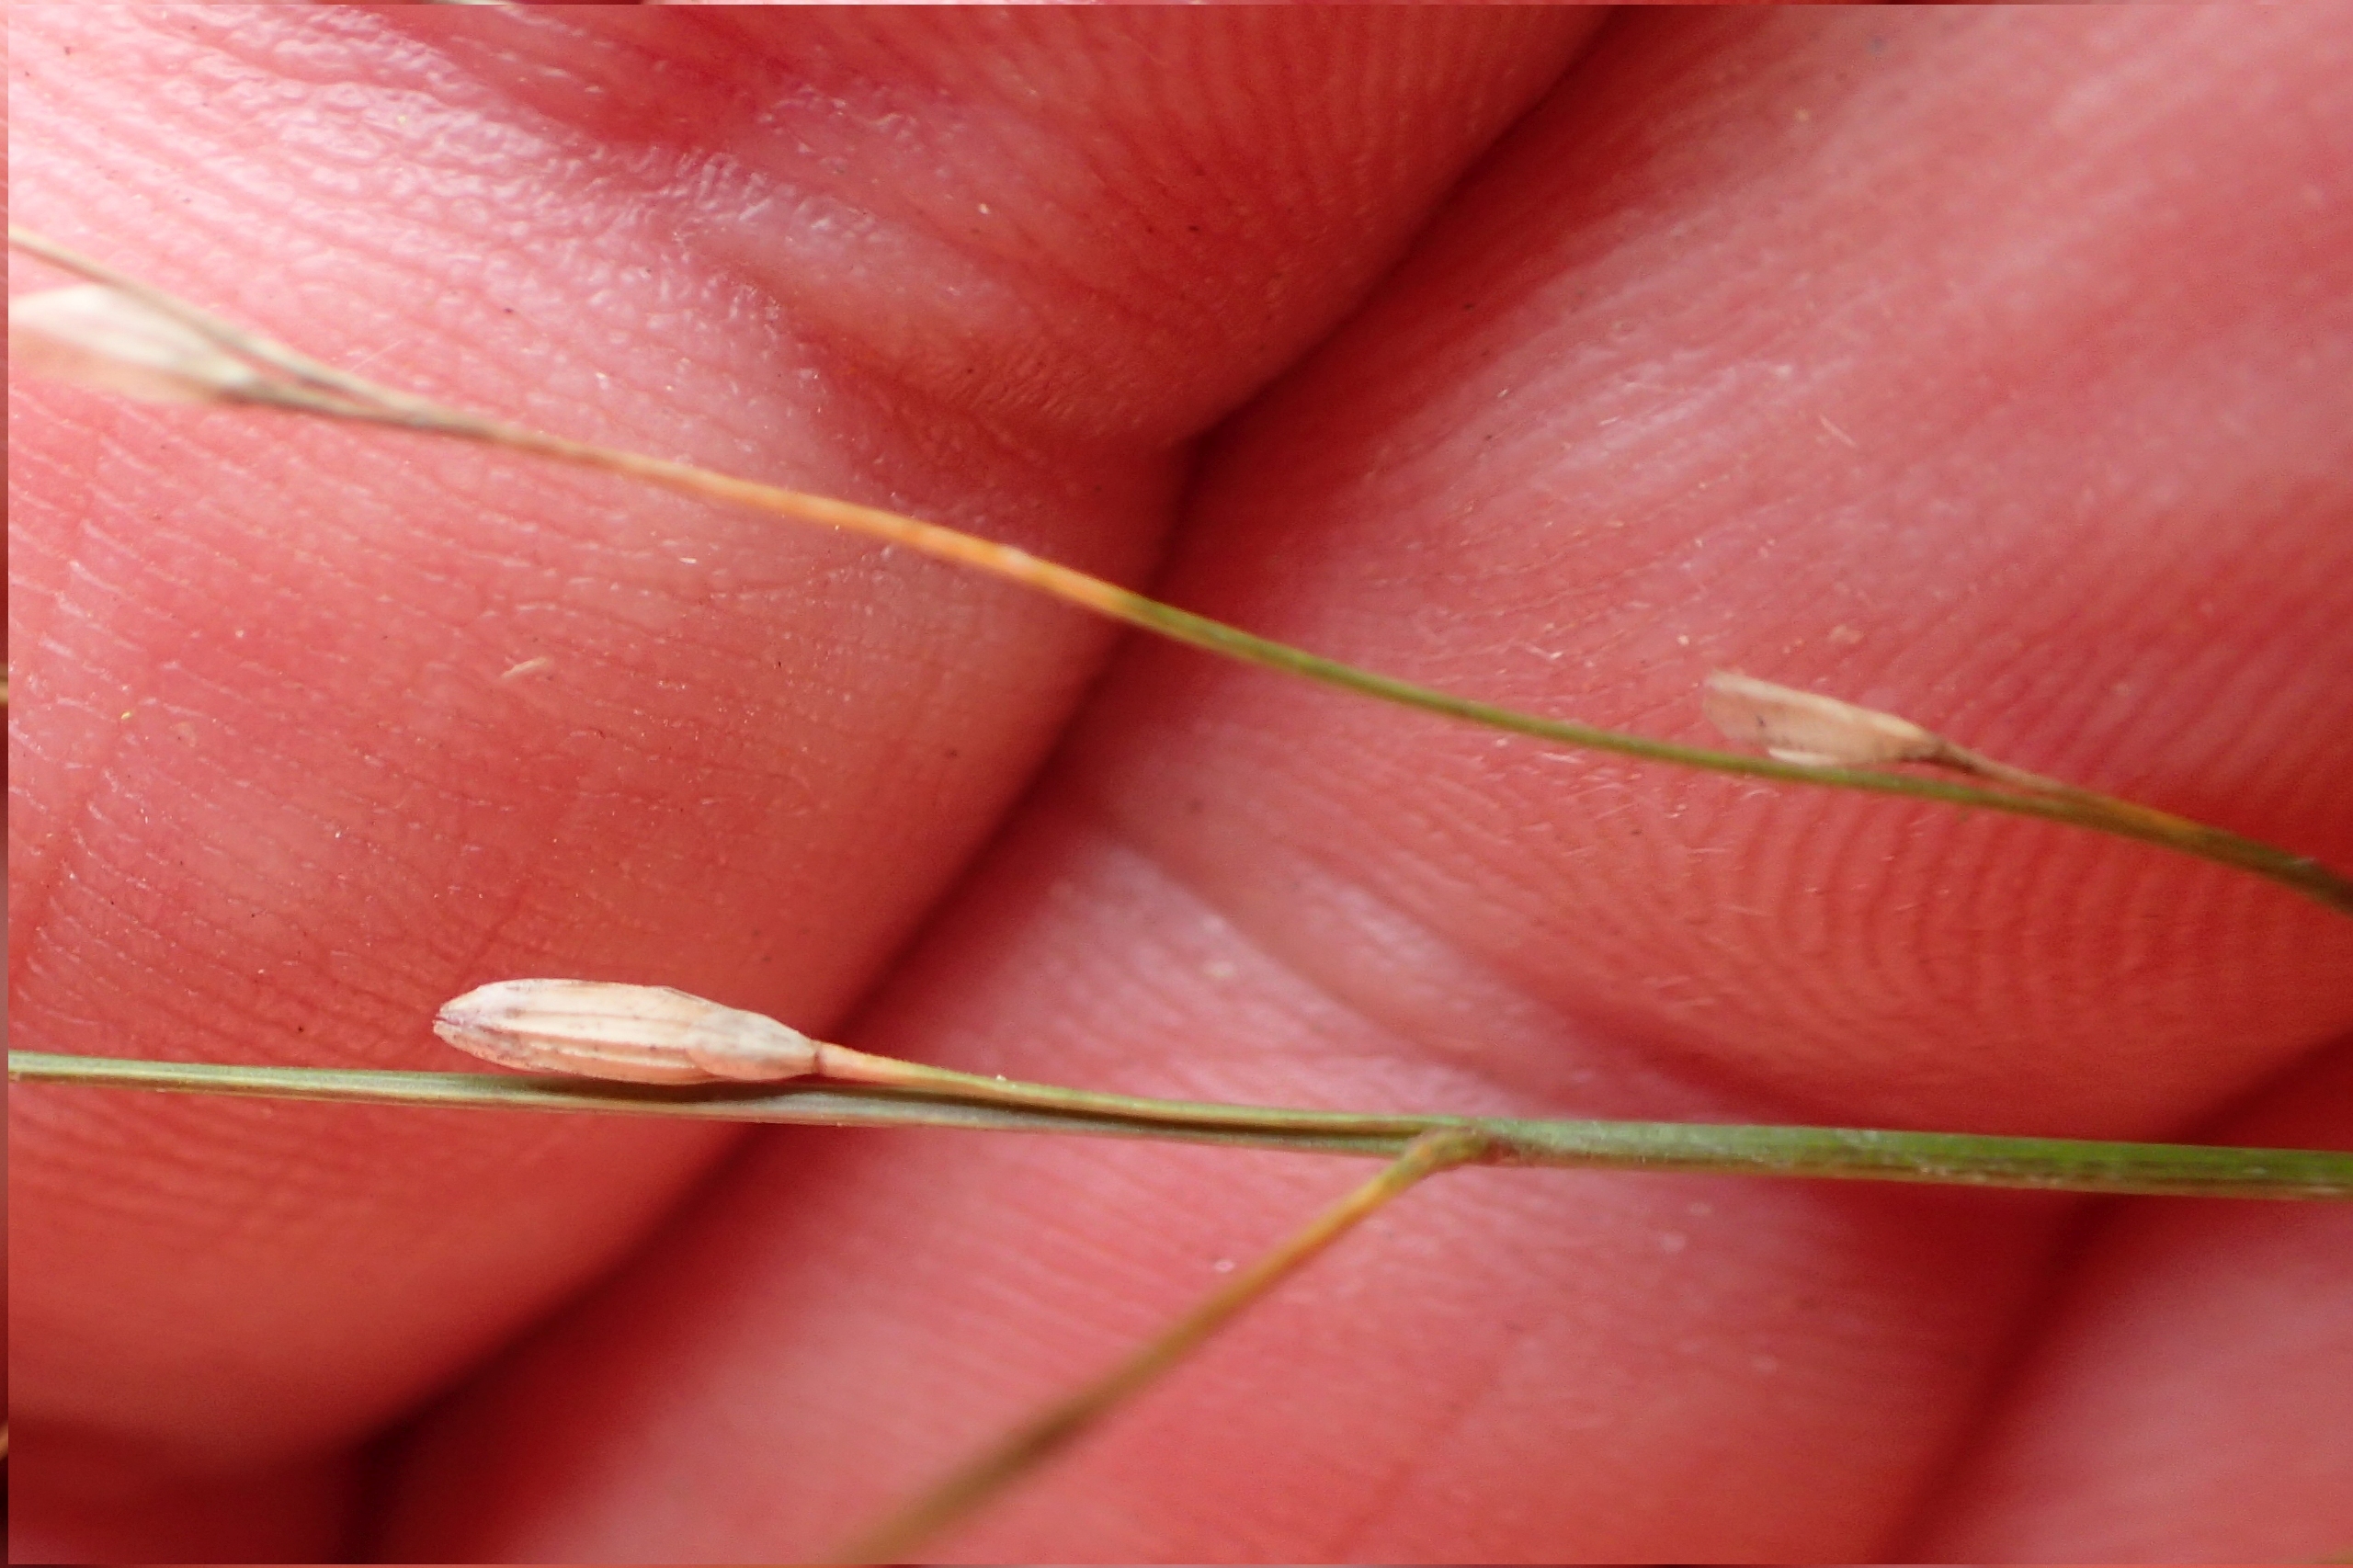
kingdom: Plantae
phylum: Tracheophyta
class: Liliopsida
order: Poales
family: Poaceae
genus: Glyceria
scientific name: Glyceria notata
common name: Butblomstret sødgræs
